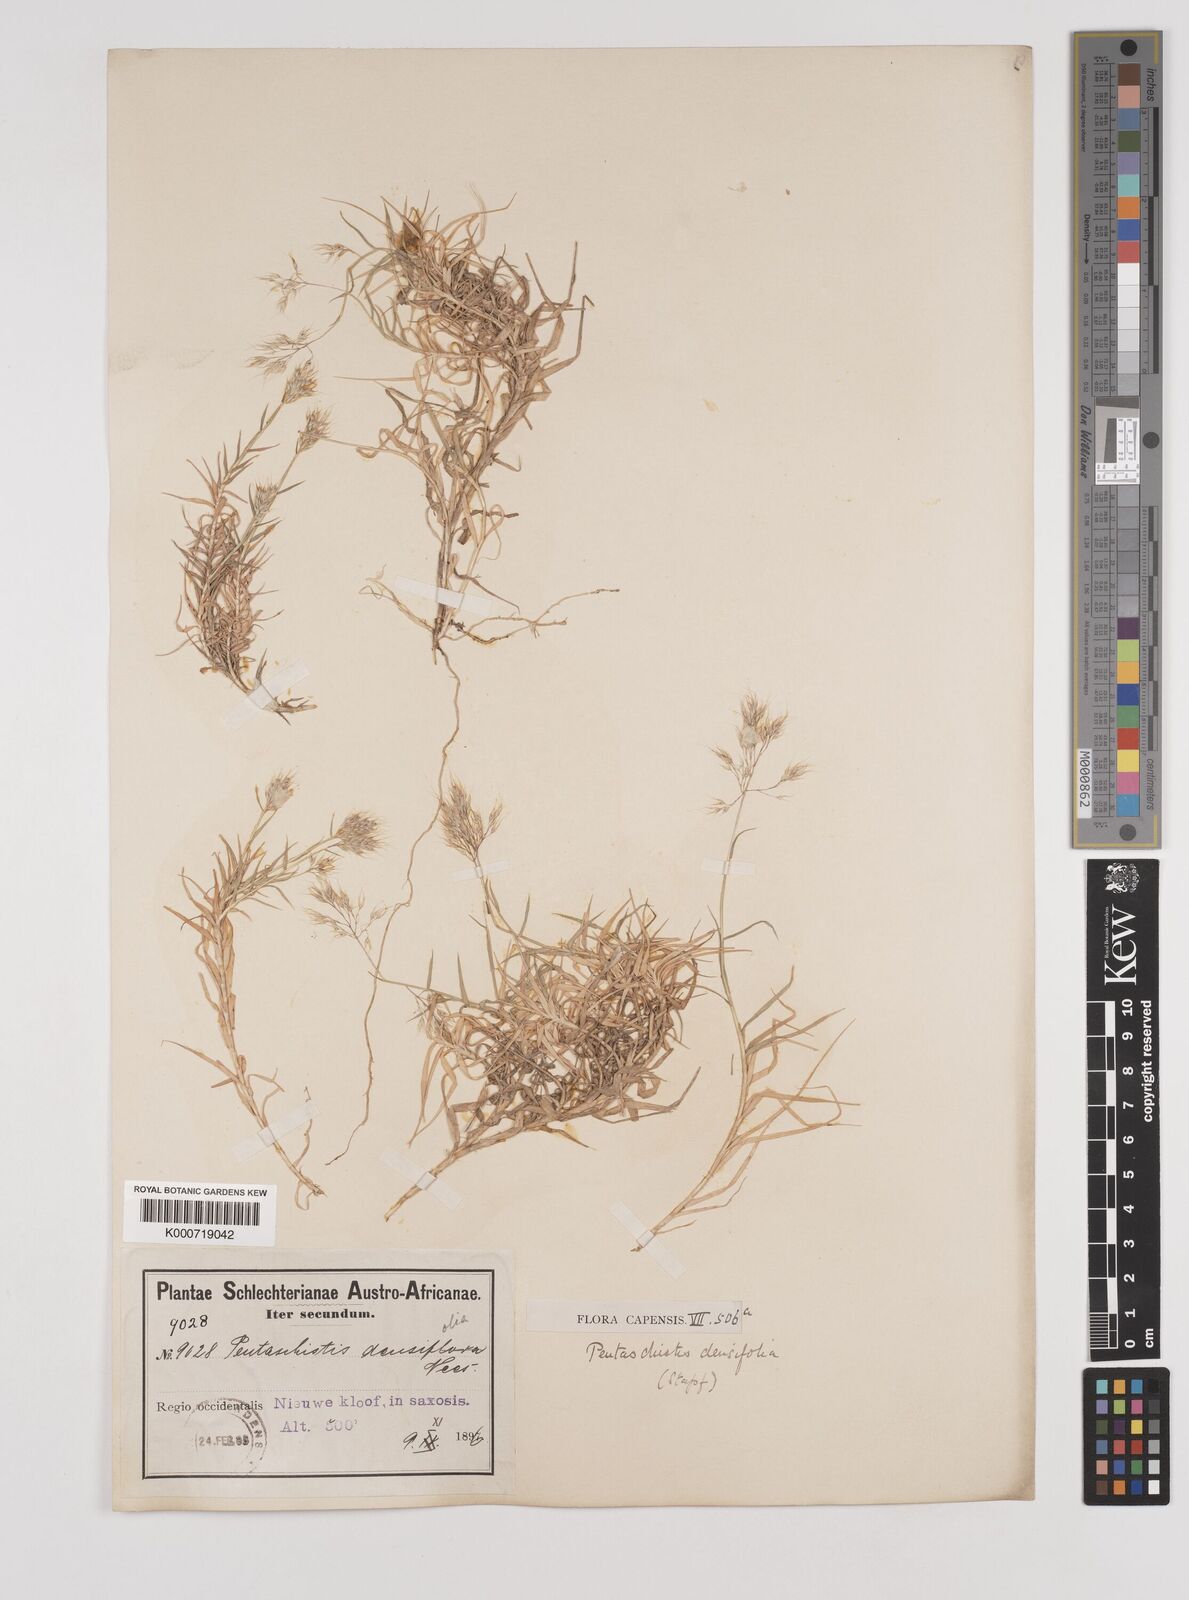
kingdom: Plantae
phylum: Tracheophyta
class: Liliopsida
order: Poales
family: Poaceae
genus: Pentameris
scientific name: Pentameris densifolia
